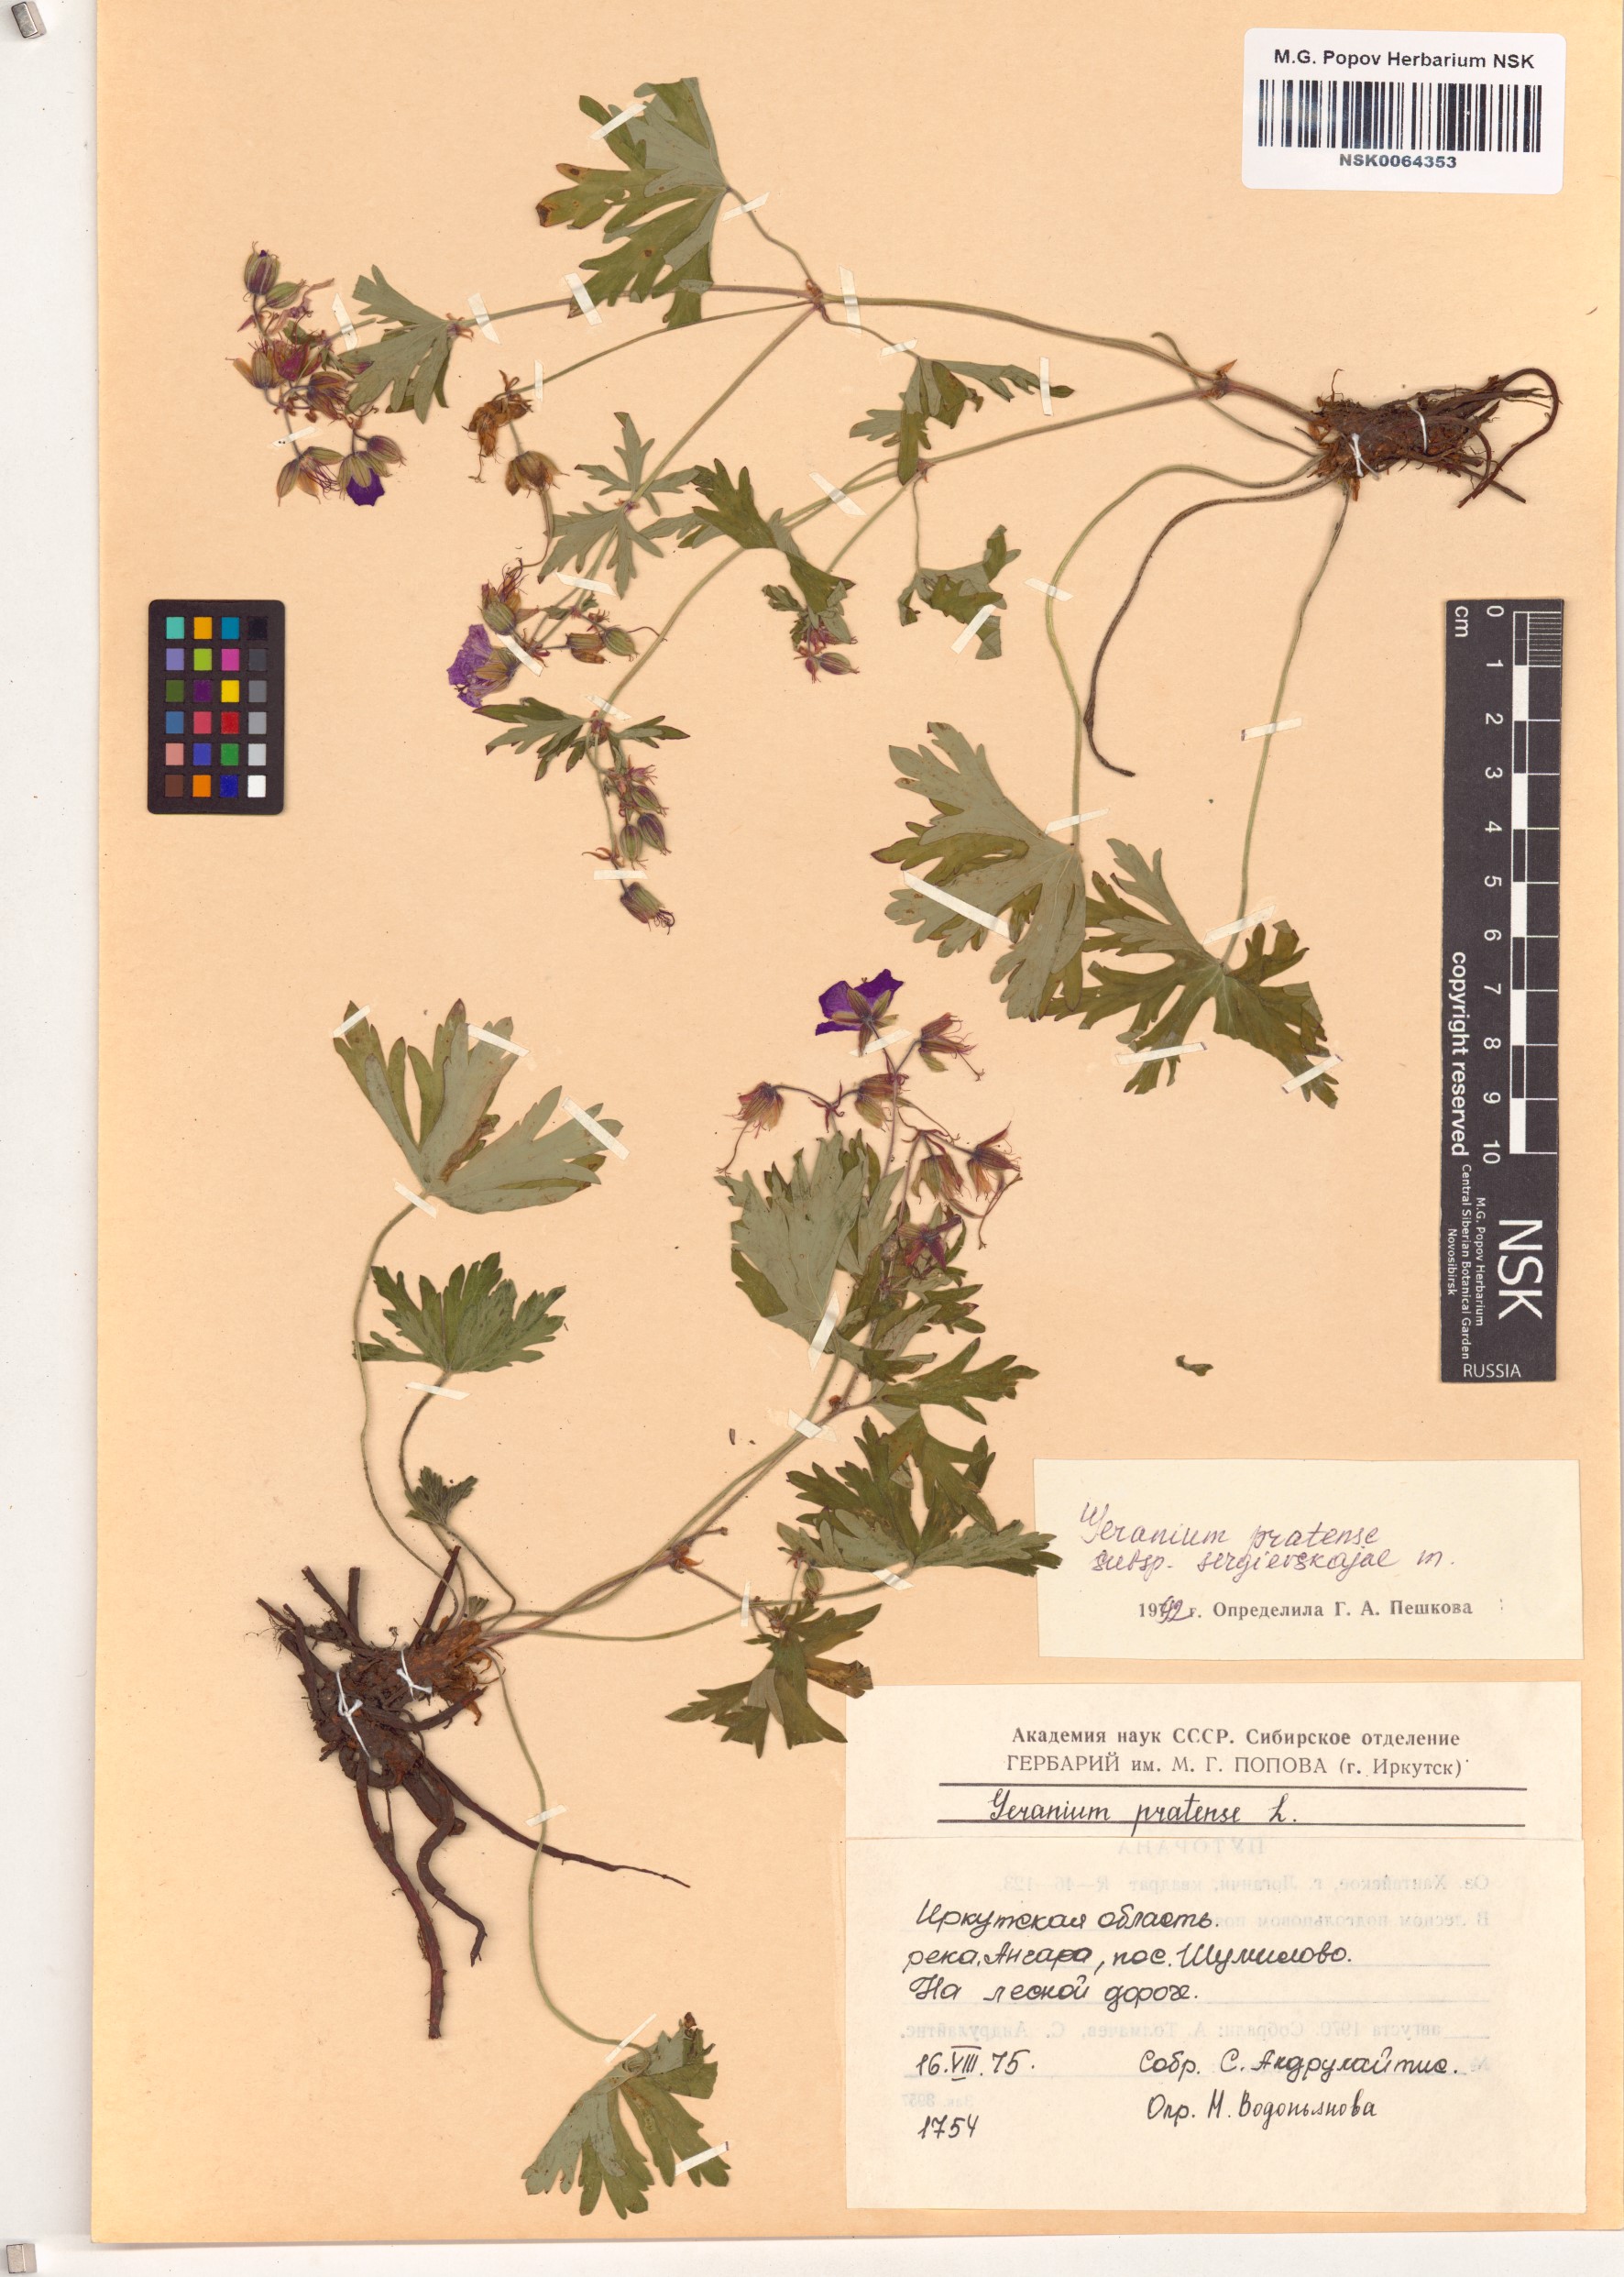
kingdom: Plantae
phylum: Tracheophyta
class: Magnoliopsida
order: Geraniales
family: Geraniaceae
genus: Geranium
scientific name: Geranium pratense
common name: Meadow crane's-bill
